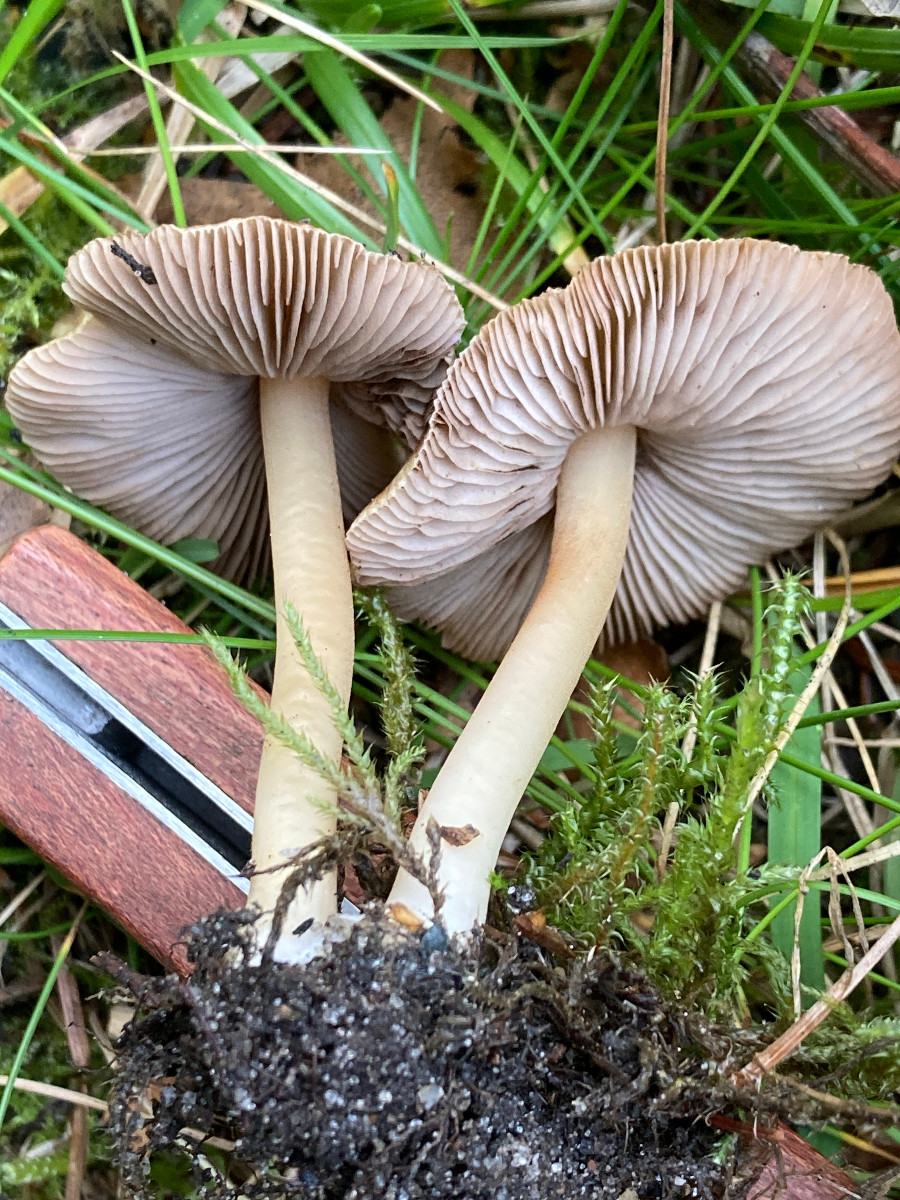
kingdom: Fungi
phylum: Basidiomycota
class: Agaricomycetes
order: Agaricales
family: Inocybaceae
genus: Inocybe
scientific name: Inocybe
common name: trævlhat
